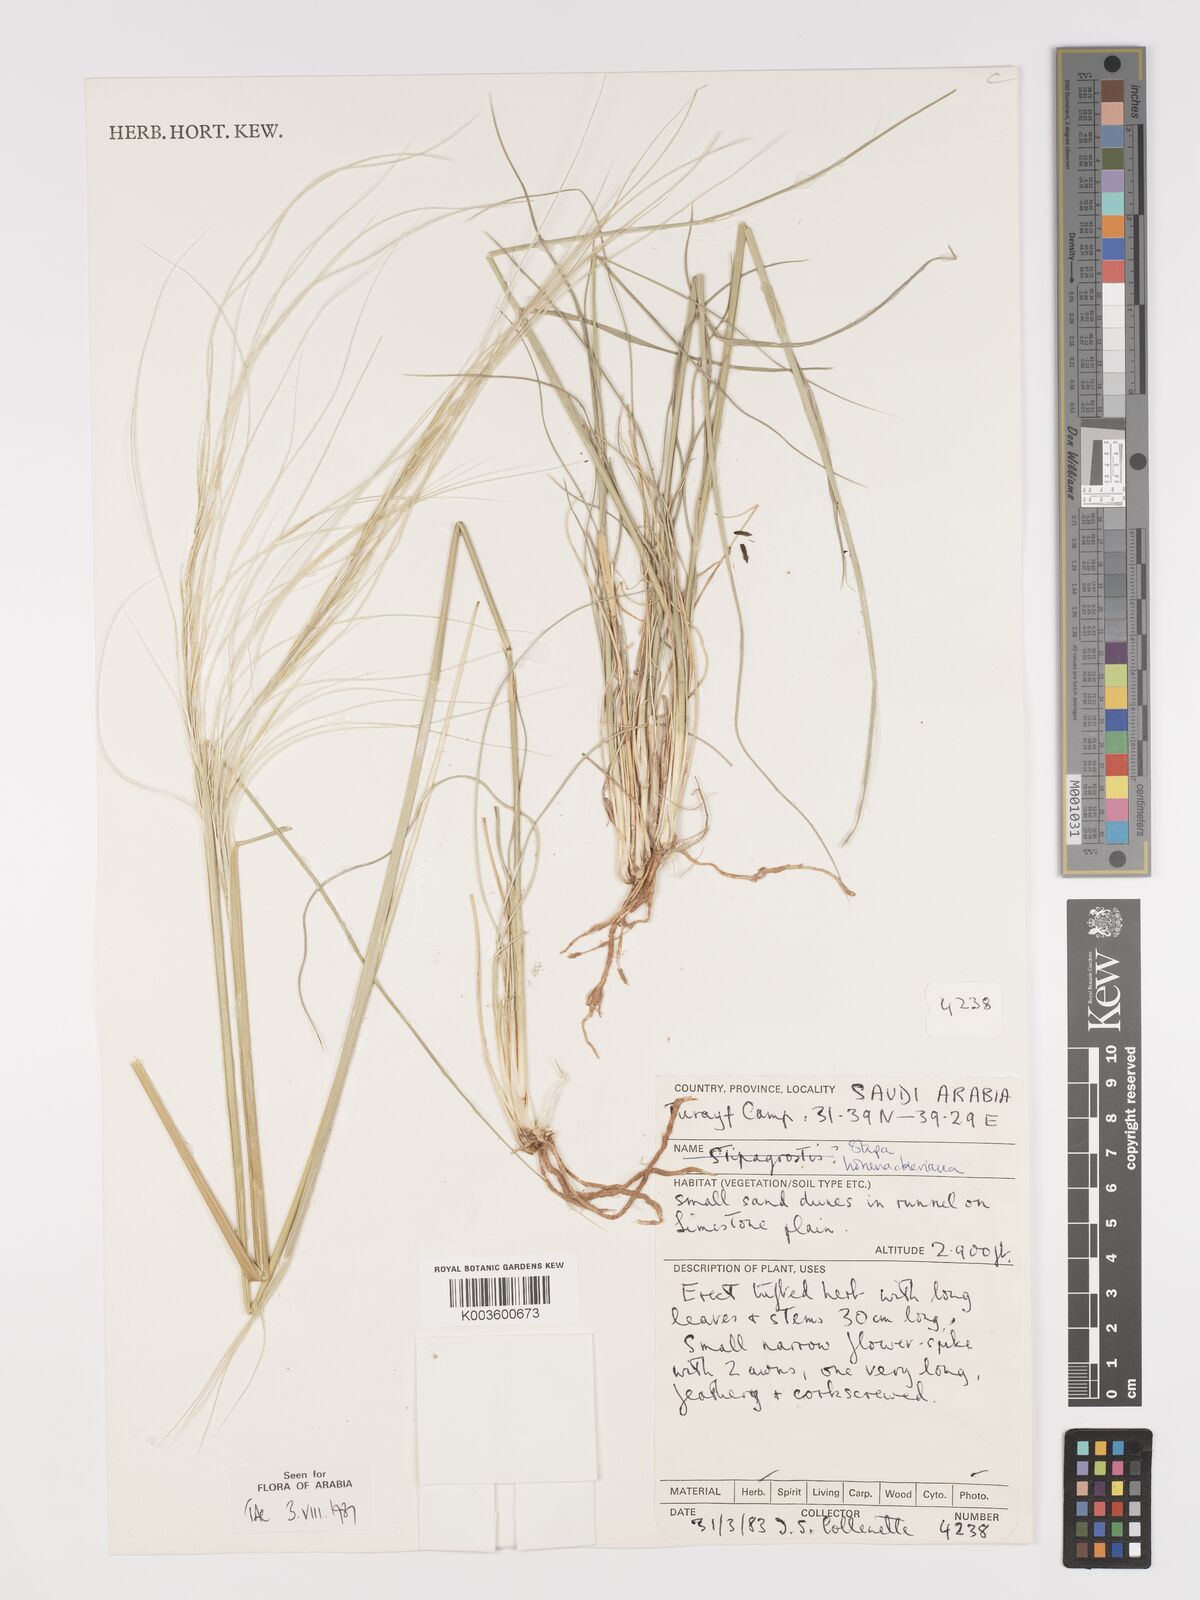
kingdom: Plantae
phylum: Tracheophyta
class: Liliopsida
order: Poales
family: Poaceae
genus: Stipa
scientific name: Stipa hohenackeriana
